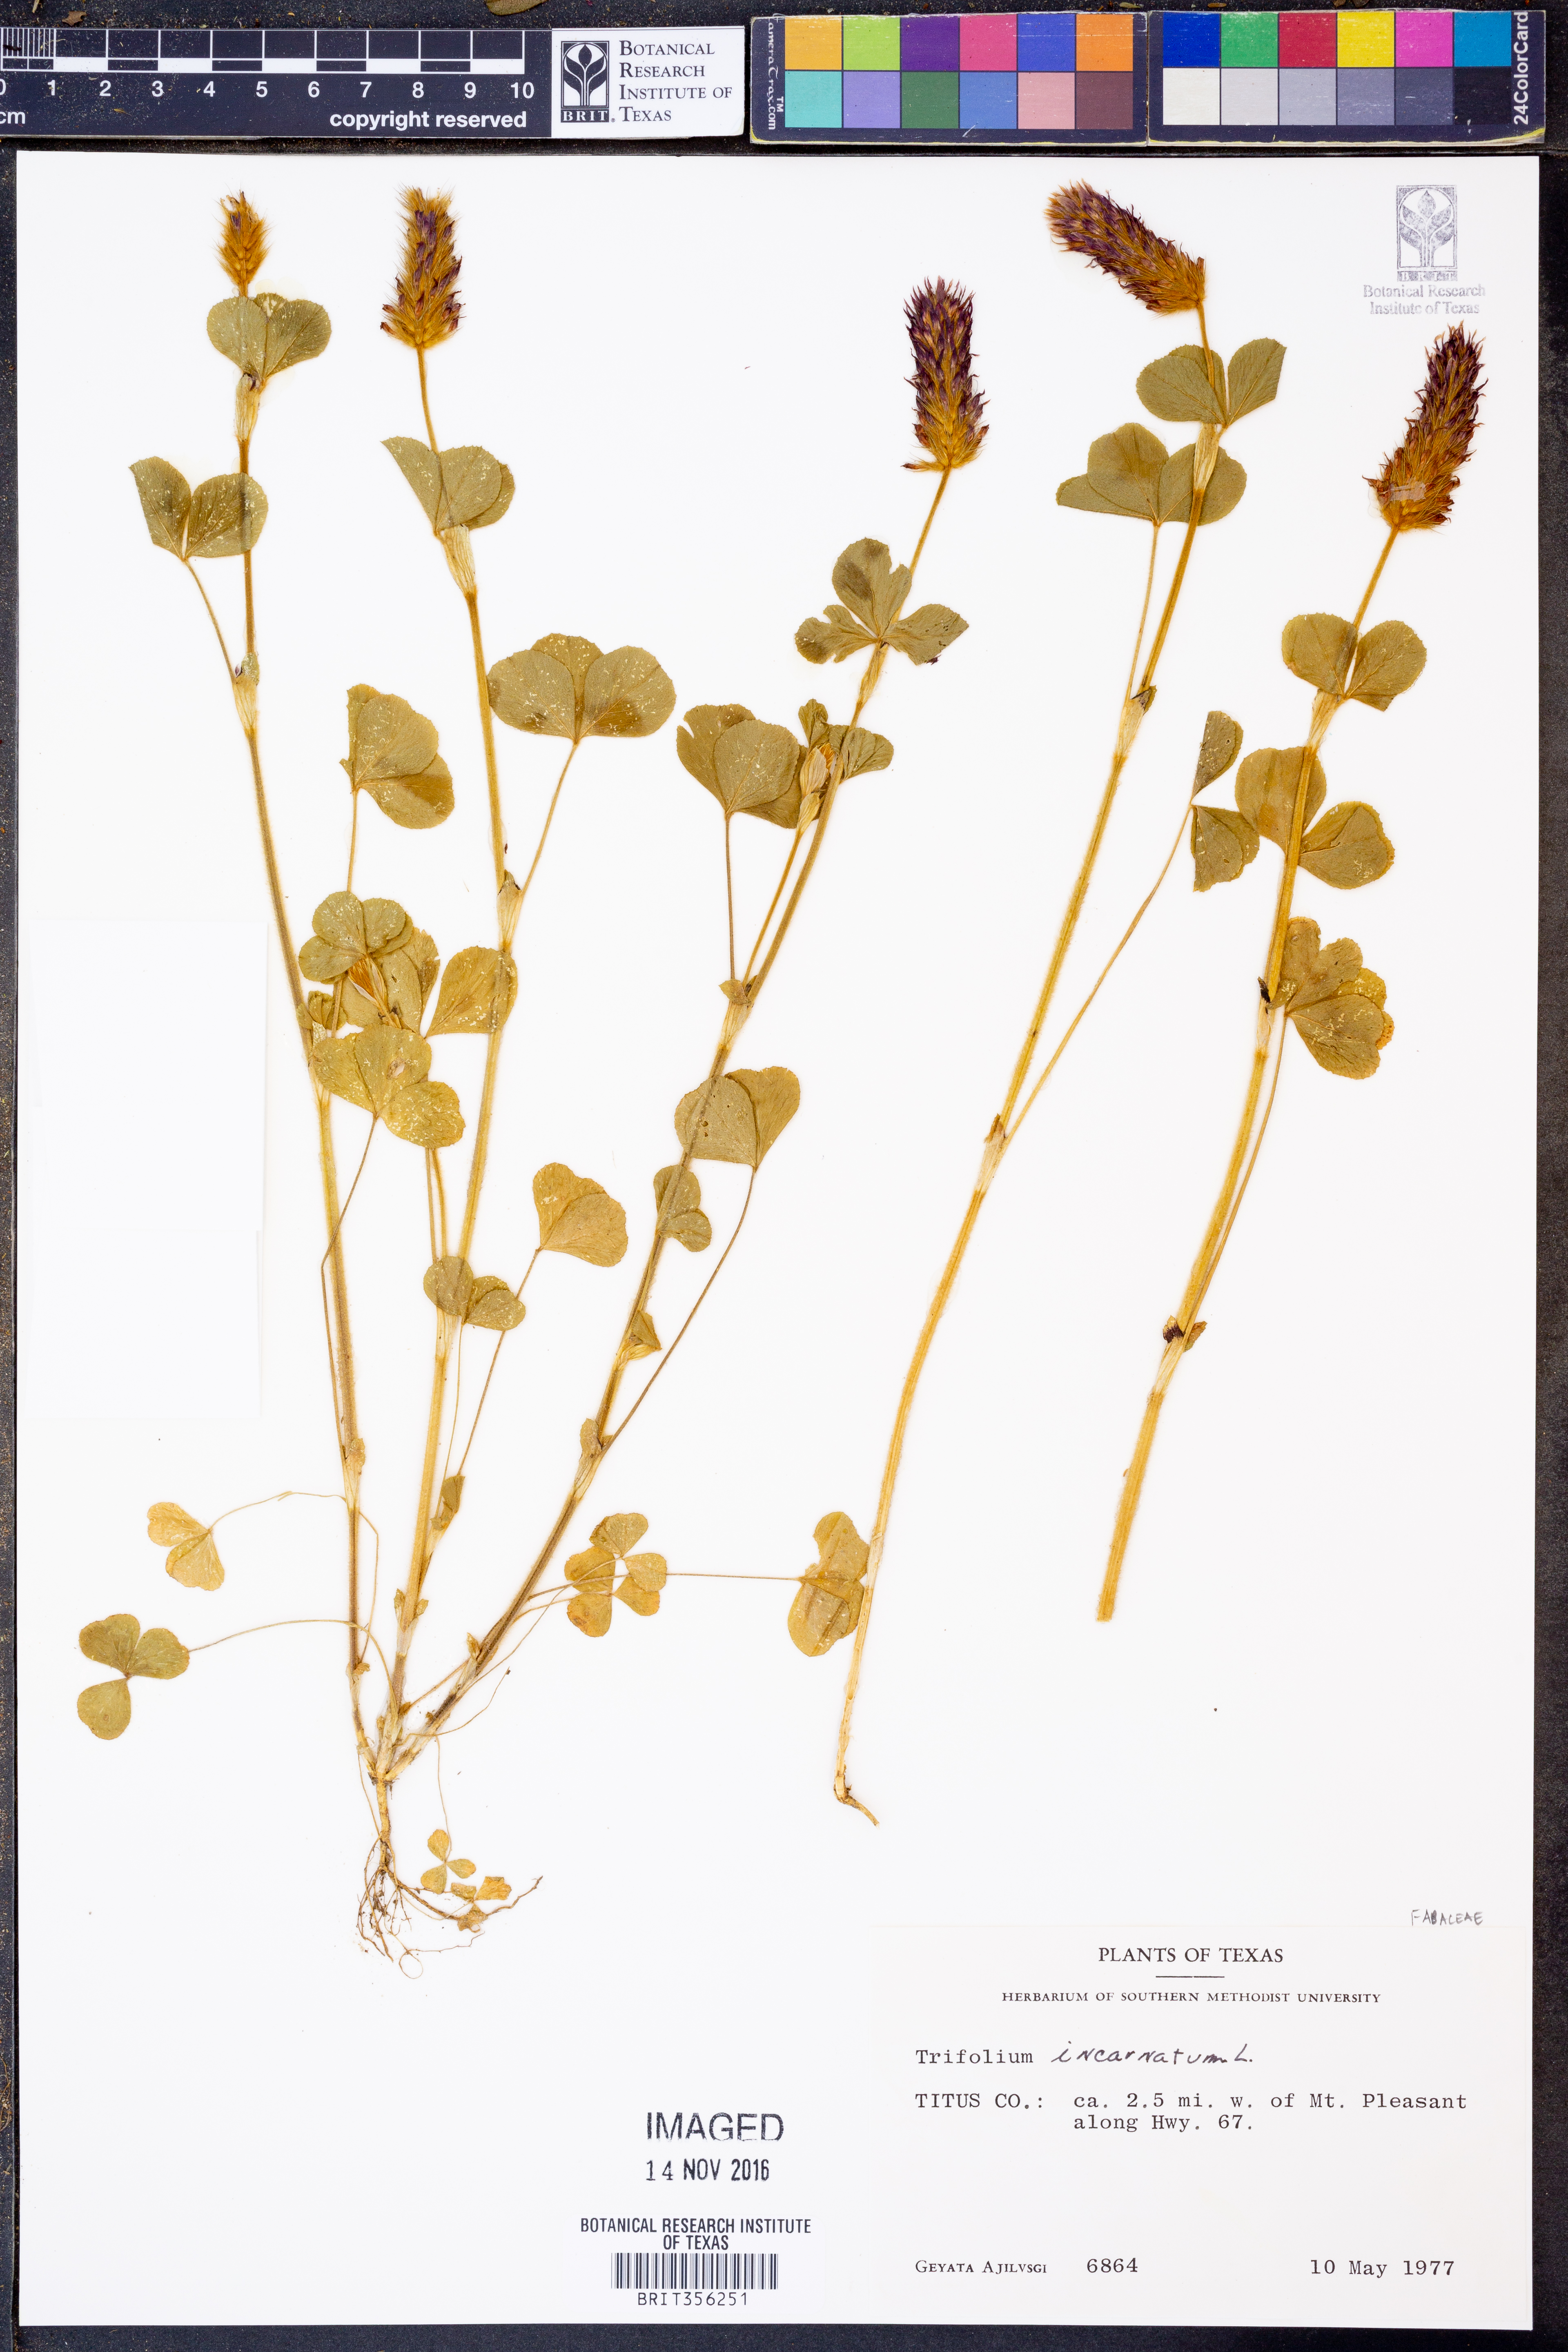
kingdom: Plantae
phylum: Tracheophyta
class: Magnoliopsida
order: Fabales
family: Fabaceae
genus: Trifolium
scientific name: Trifolium incarnatum
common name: Crimson clover
